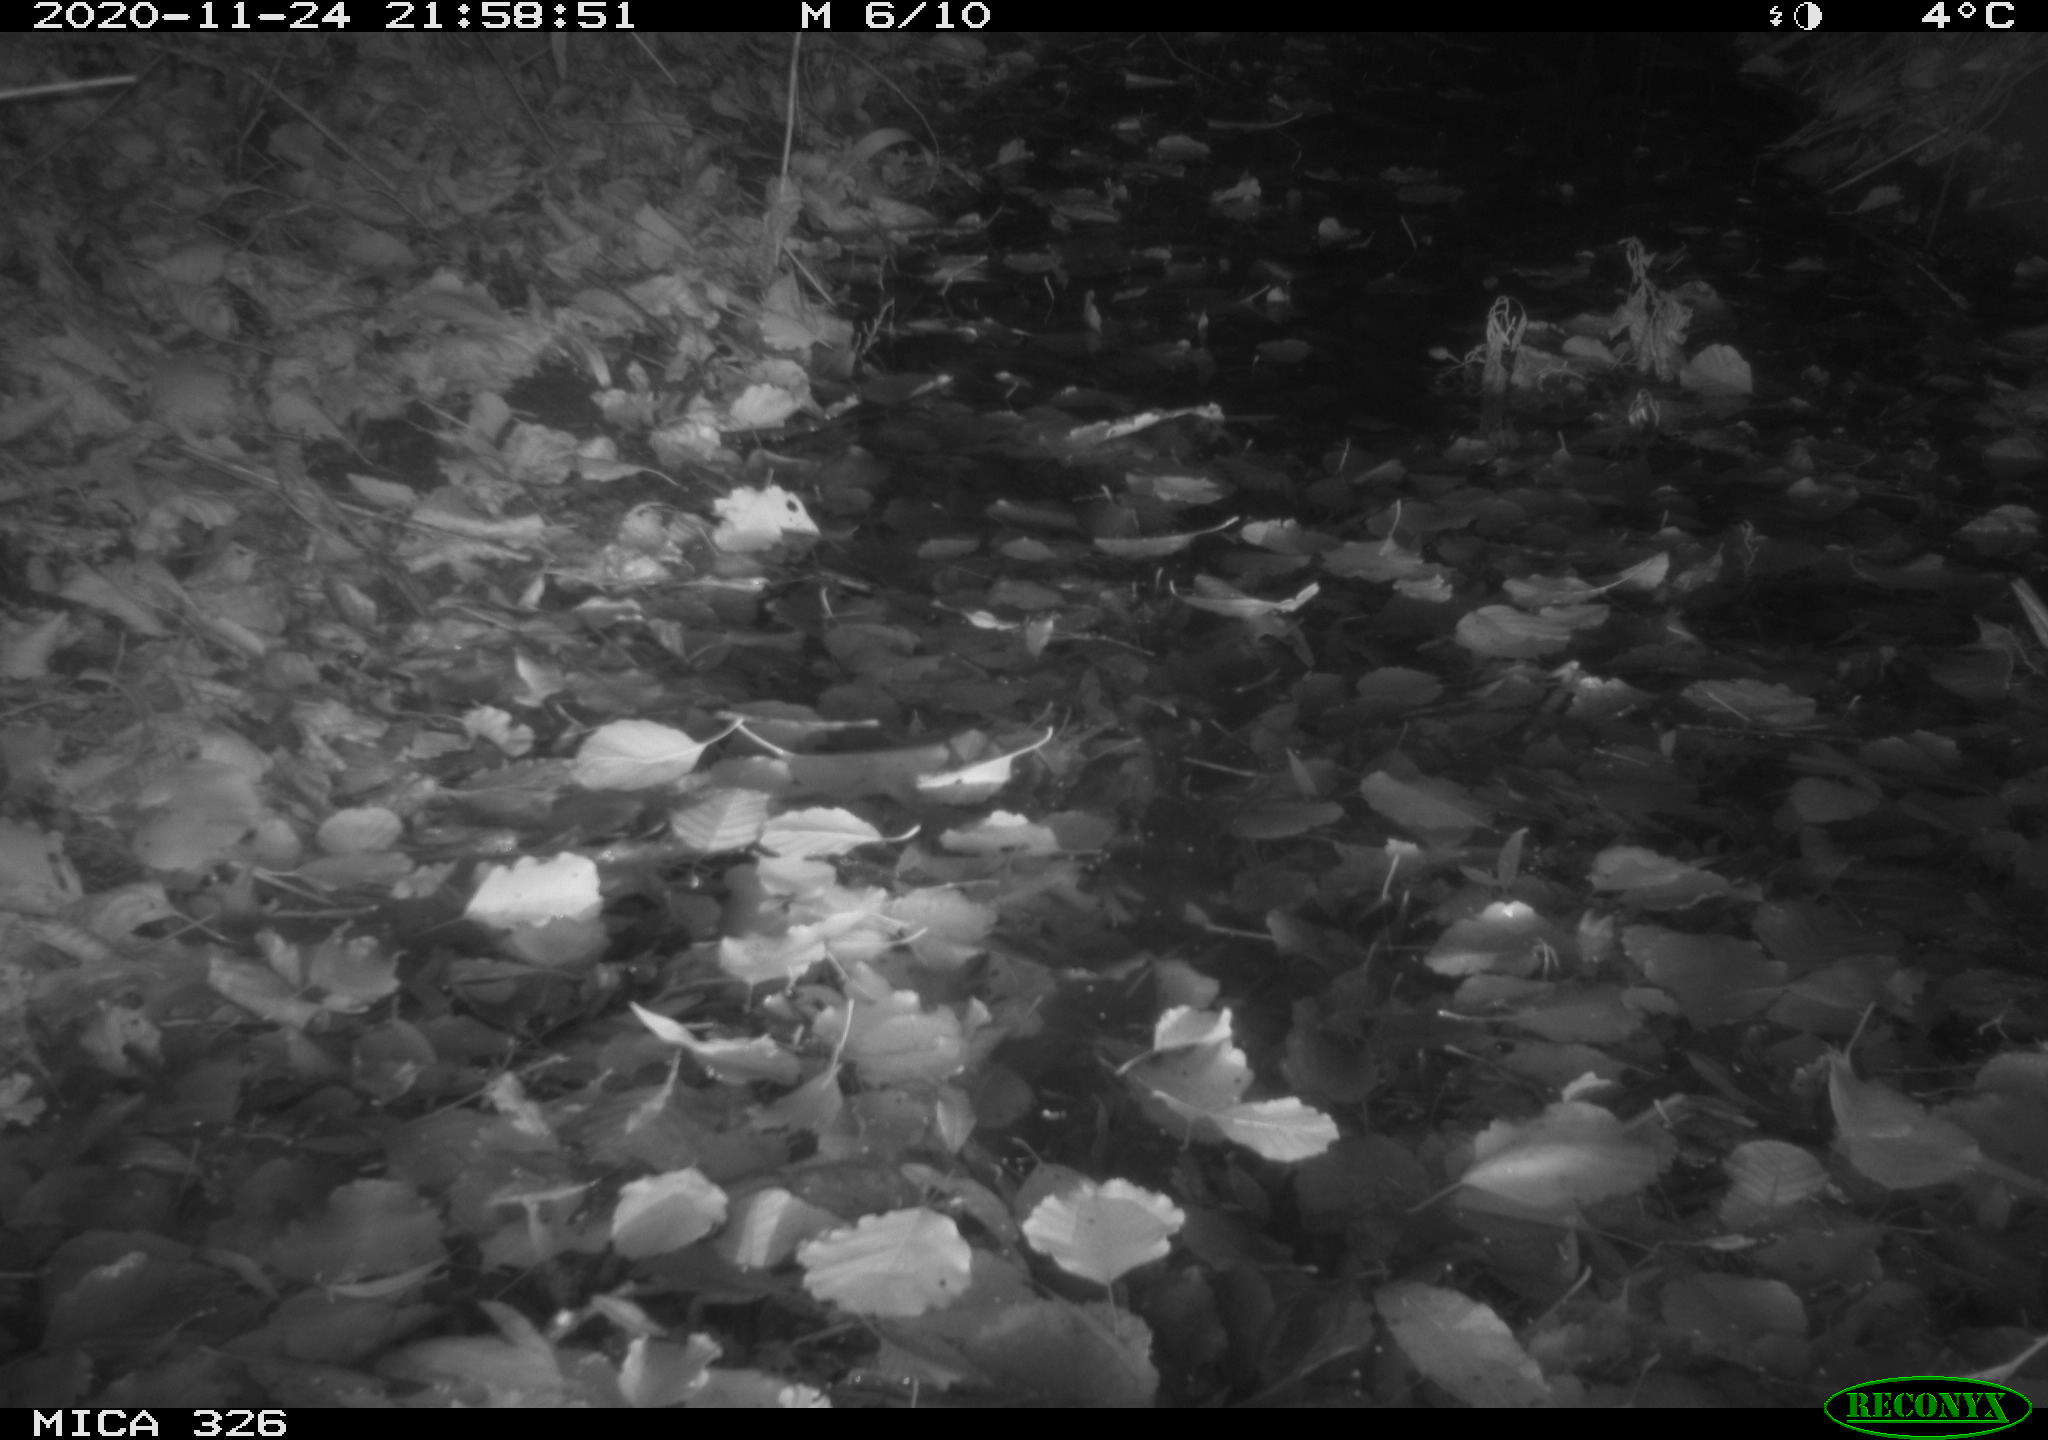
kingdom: Animalia
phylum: Chordata
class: Mammalia
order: Rodentia
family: Muridae
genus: Rattus
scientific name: Rattus norvegicus
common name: Brown rat
